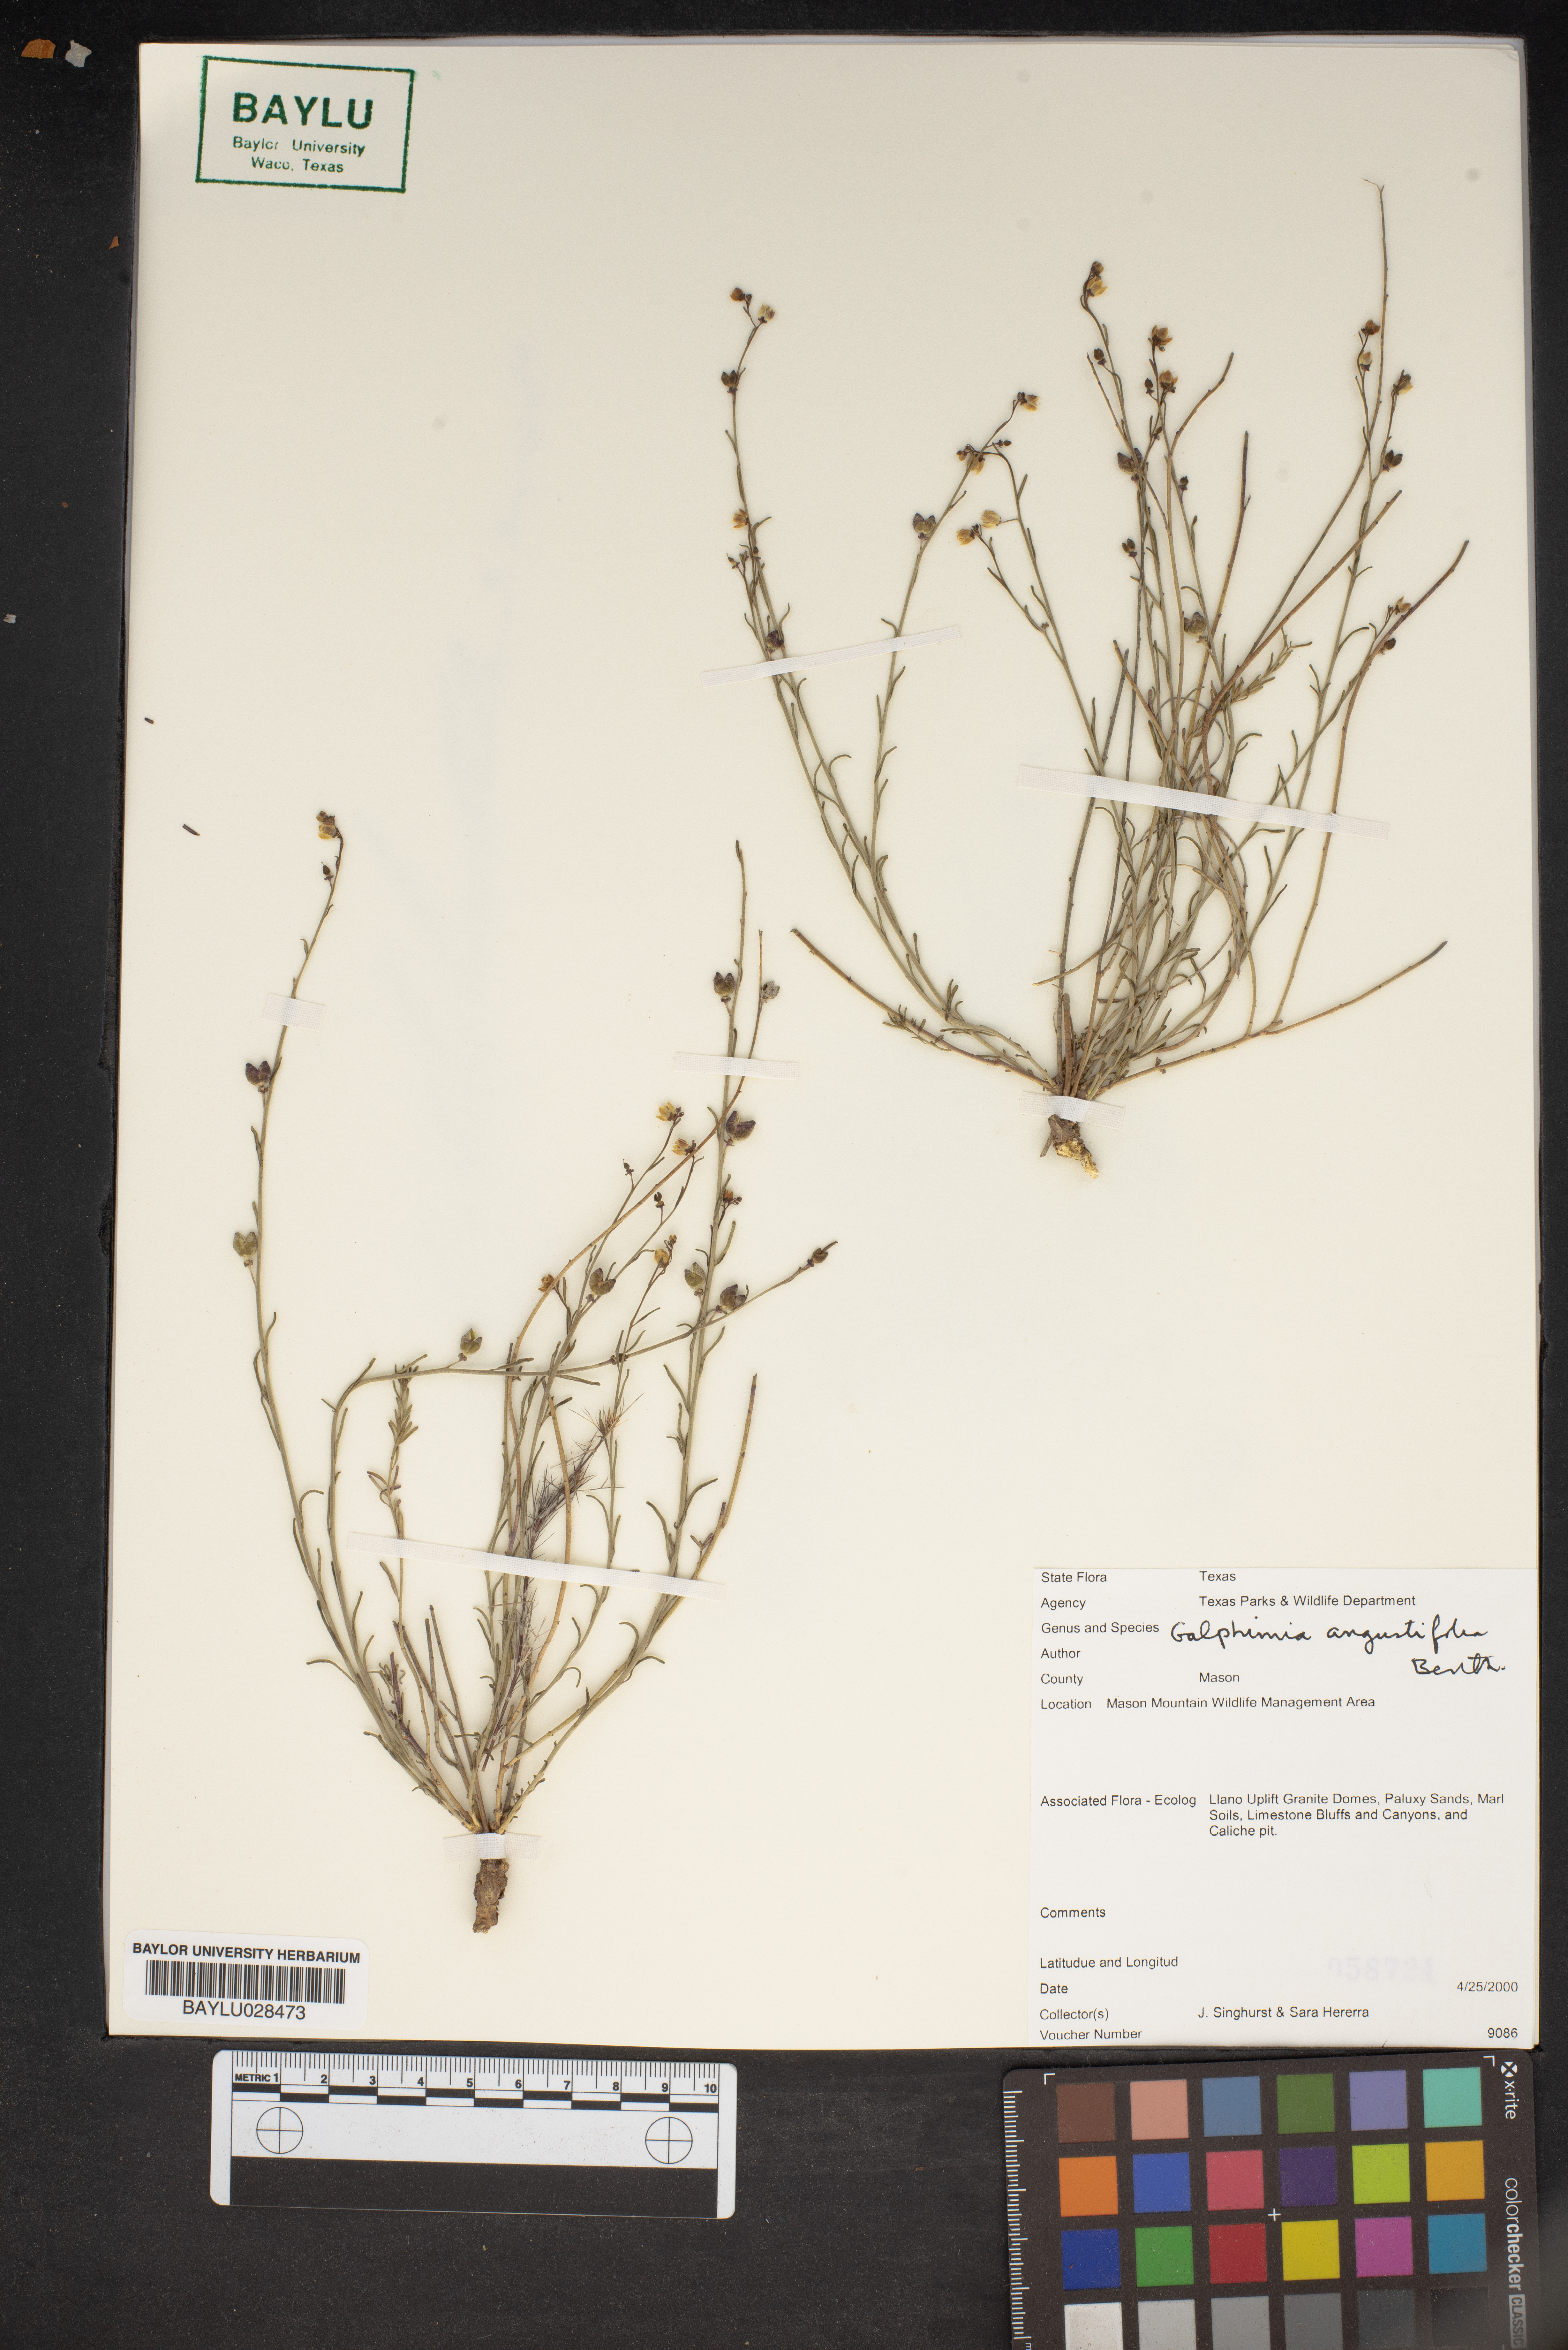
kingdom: Plantae
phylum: Tracheophyta
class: Magnoliopsida
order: Malpighiales
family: Malpighiaceae
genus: Galphimia
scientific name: Galphimia angustifolia
